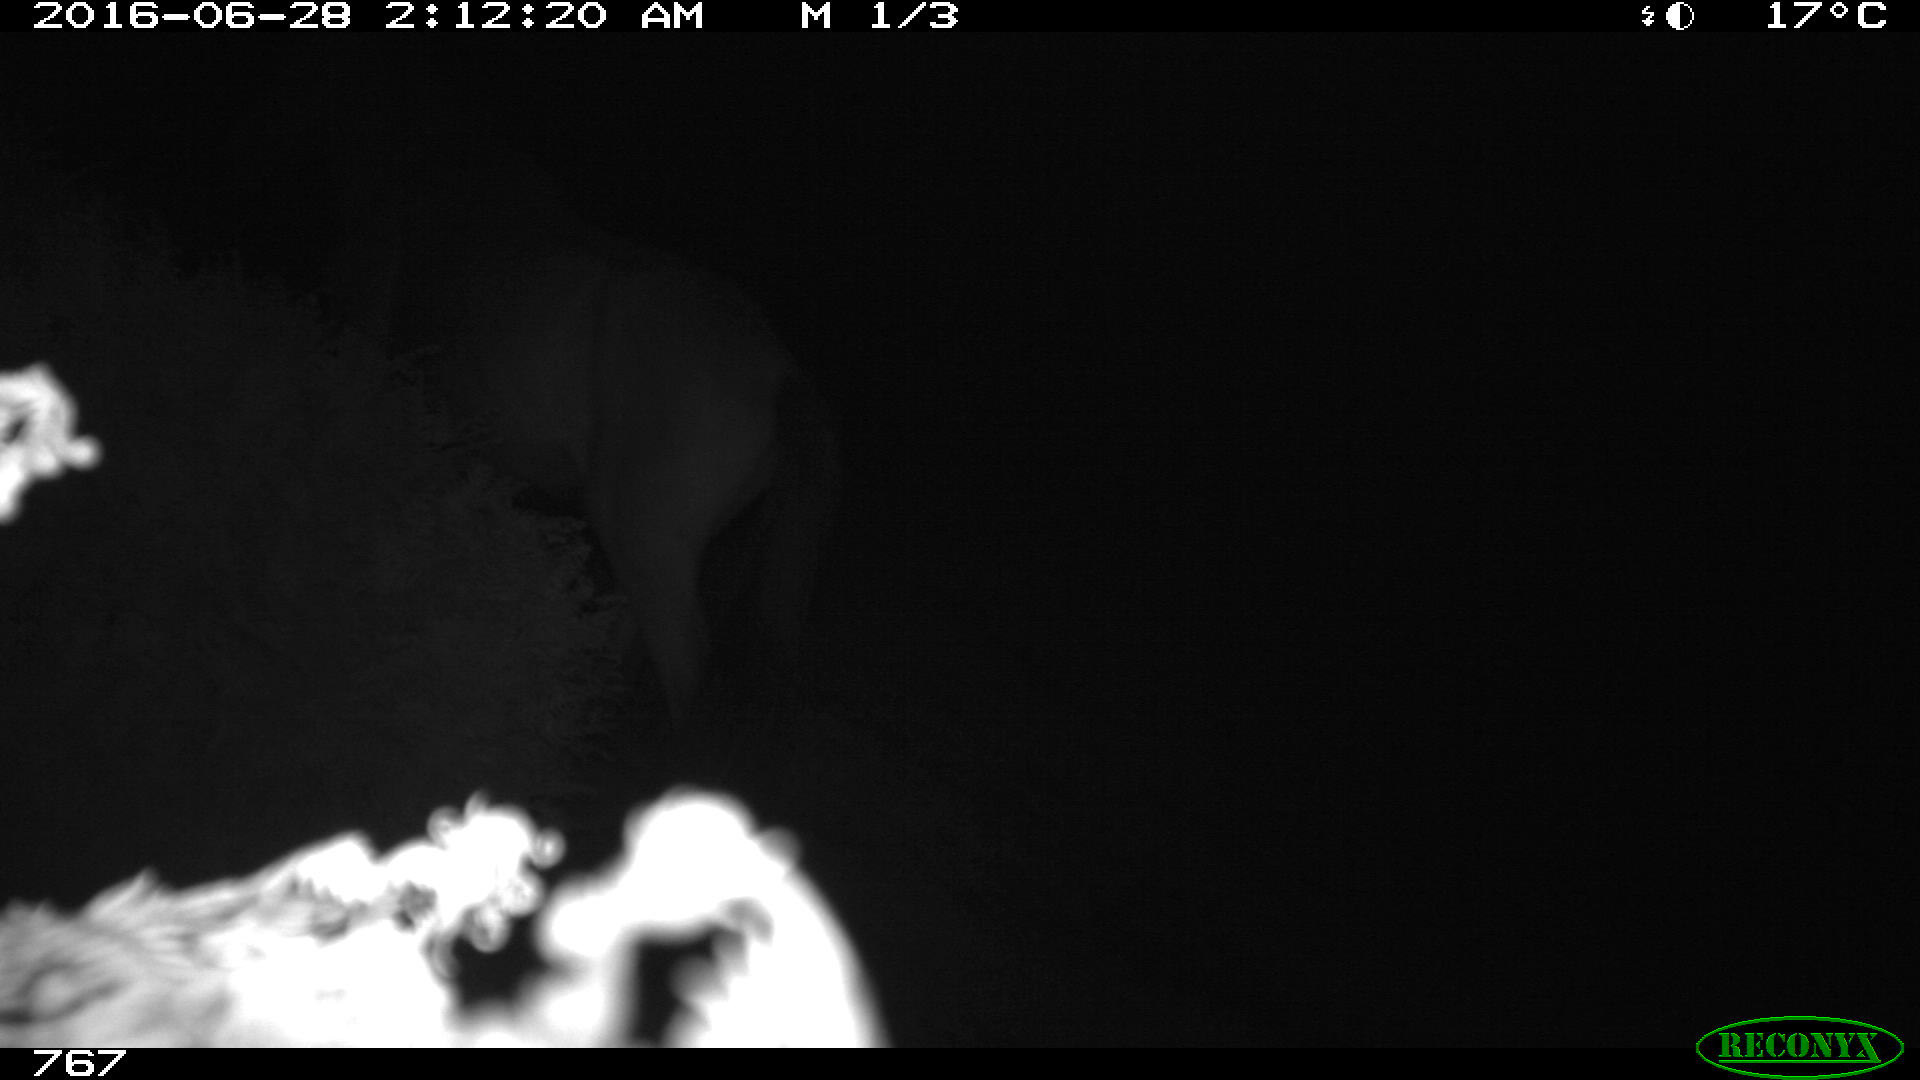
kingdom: Animalia
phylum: Chordata
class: Mammalia
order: Perissodactyla
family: Equidae
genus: Equus
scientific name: Equus caballus
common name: Horse
